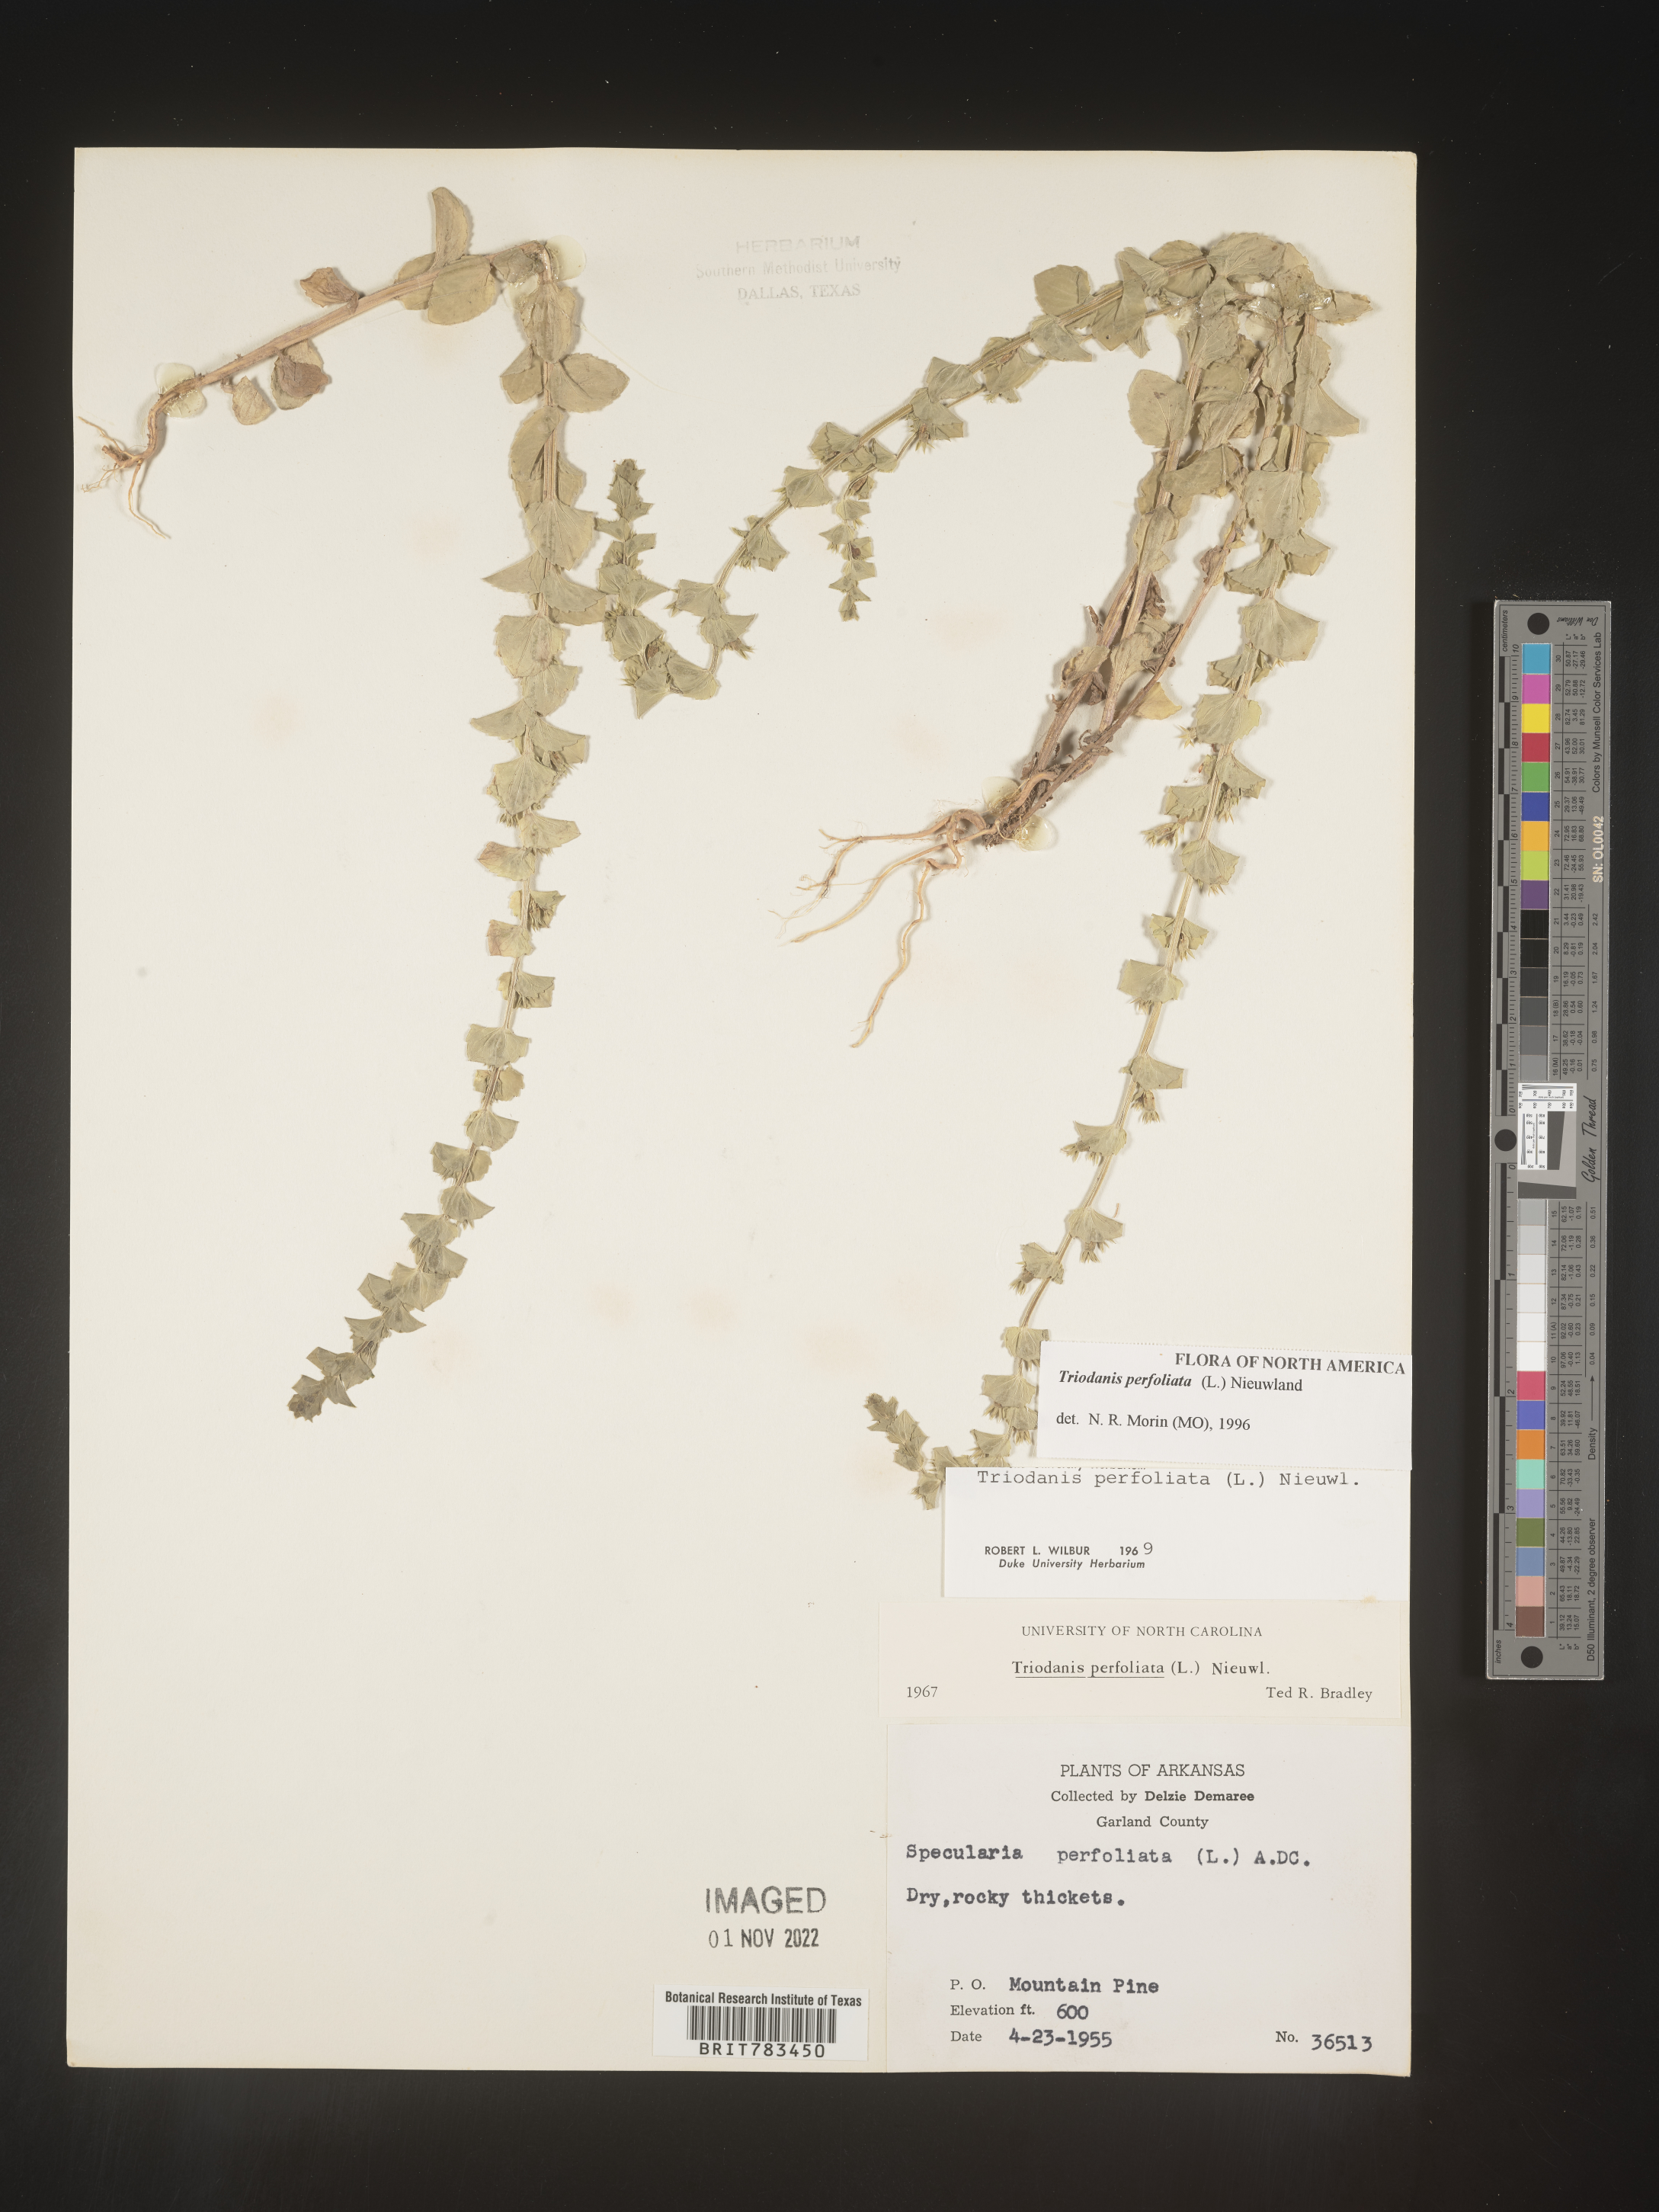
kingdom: Plantae
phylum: Tracheophyta
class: Magnoliopsida
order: Asterales
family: Campanulaceae
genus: Triodanis
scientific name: Triodanis perfoliata
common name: Clasping venus' looking-glass
